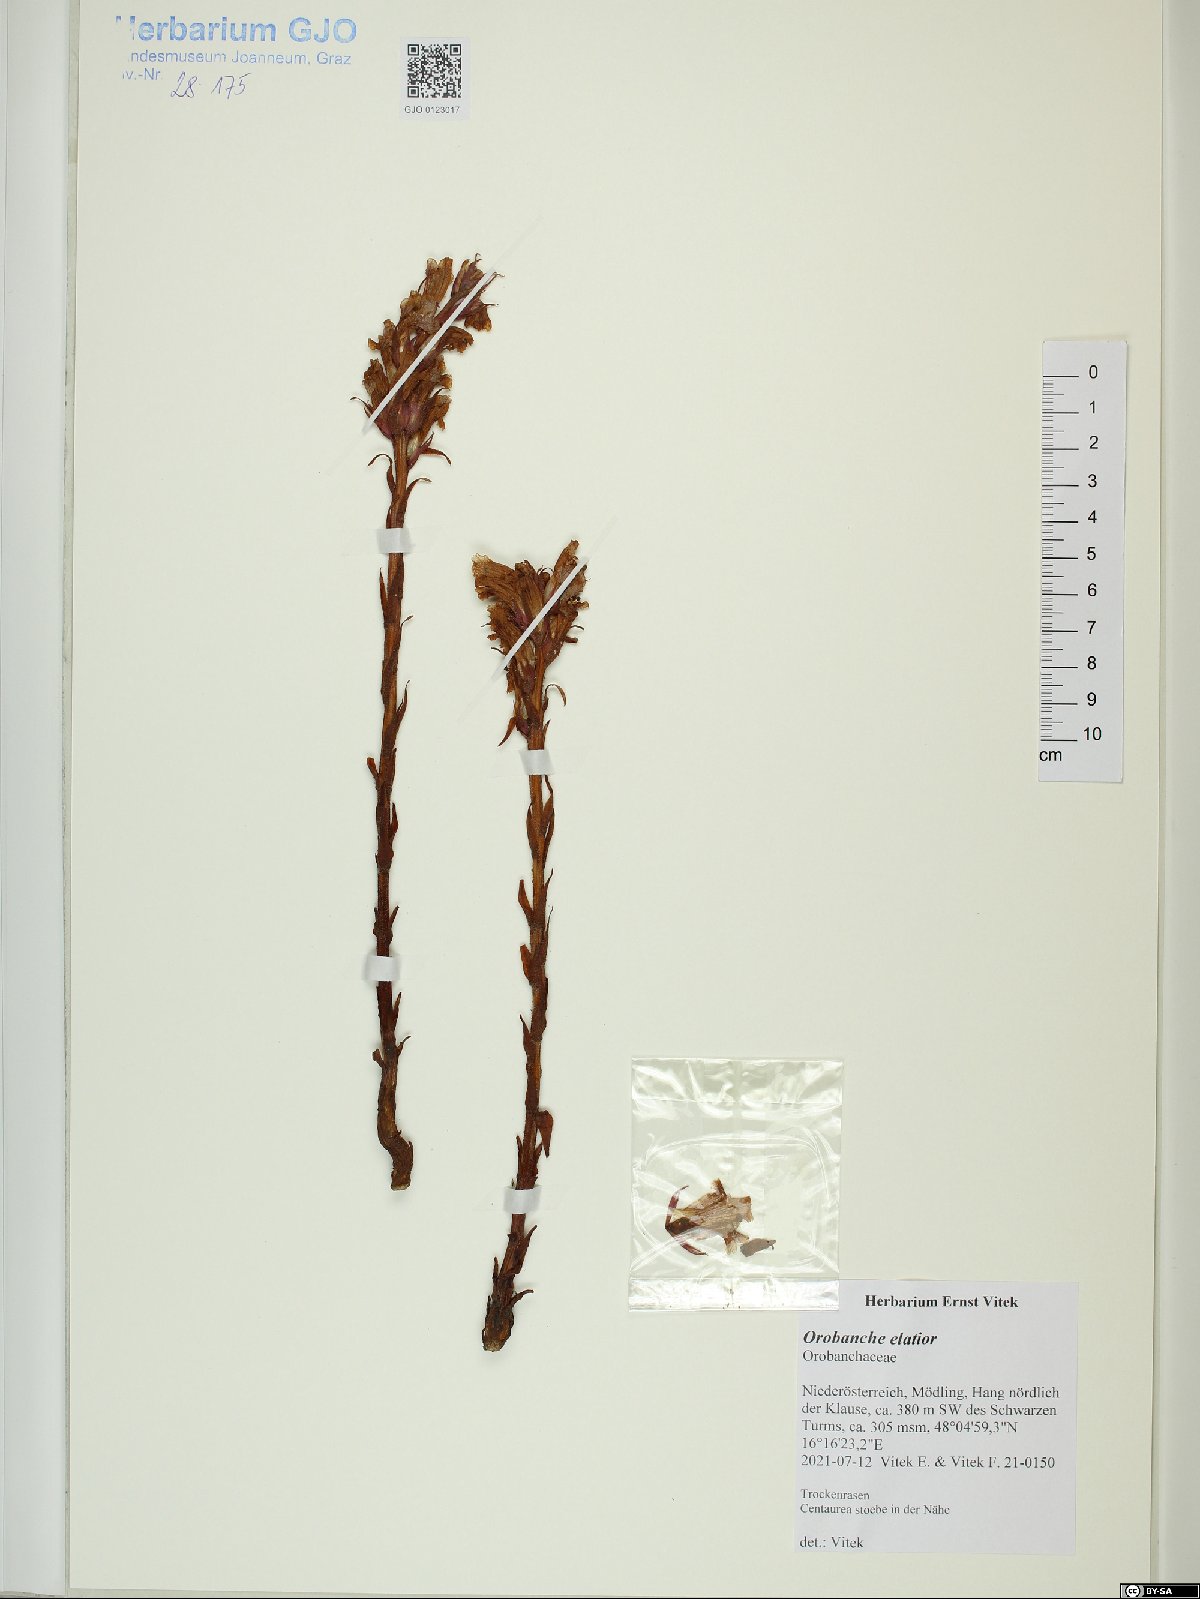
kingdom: Plantae
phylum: Tracheophyta
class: Magnoliopsida
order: Lamiales
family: Orobanchaceae
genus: Orobanche
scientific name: Orobanche elatior
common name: Knapweed broomrape
